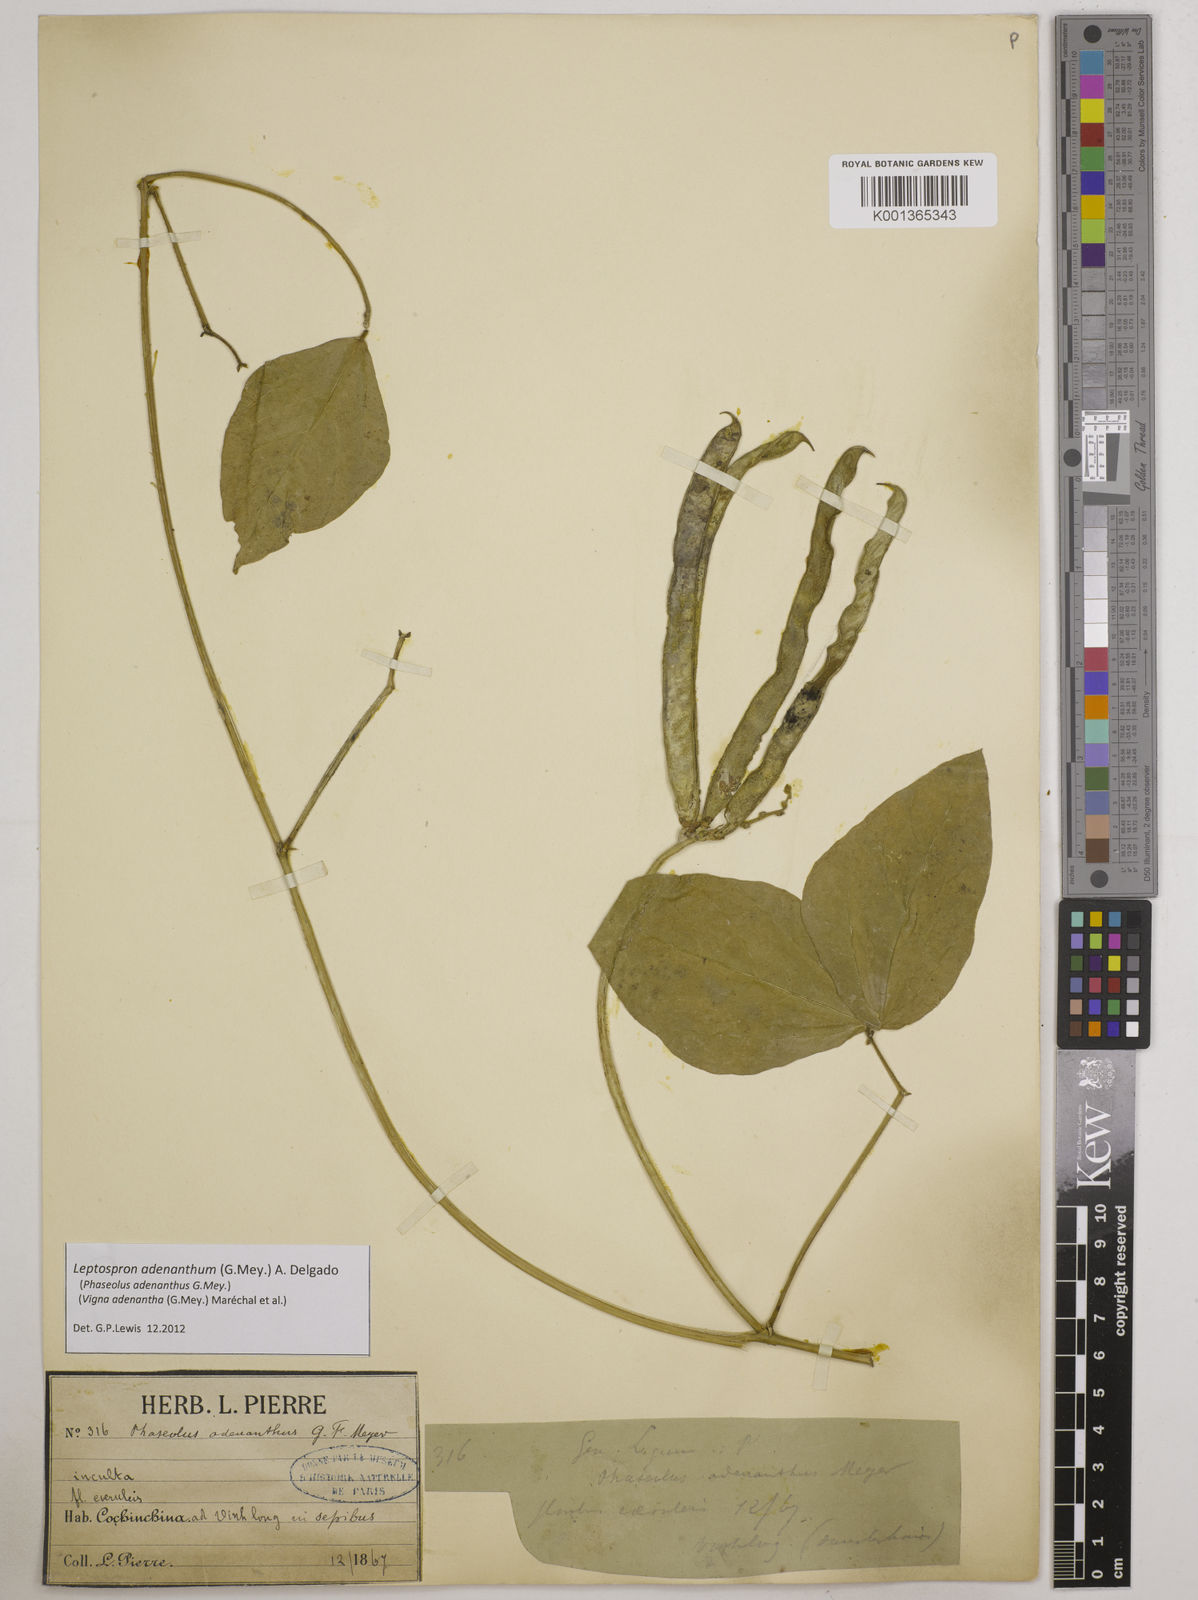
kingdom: Plantae
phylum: Tracheophyta
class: Magnoliopsida
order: Fabales
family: Fabaceae
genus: Leptospron
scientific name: Leptospron adenanthum
